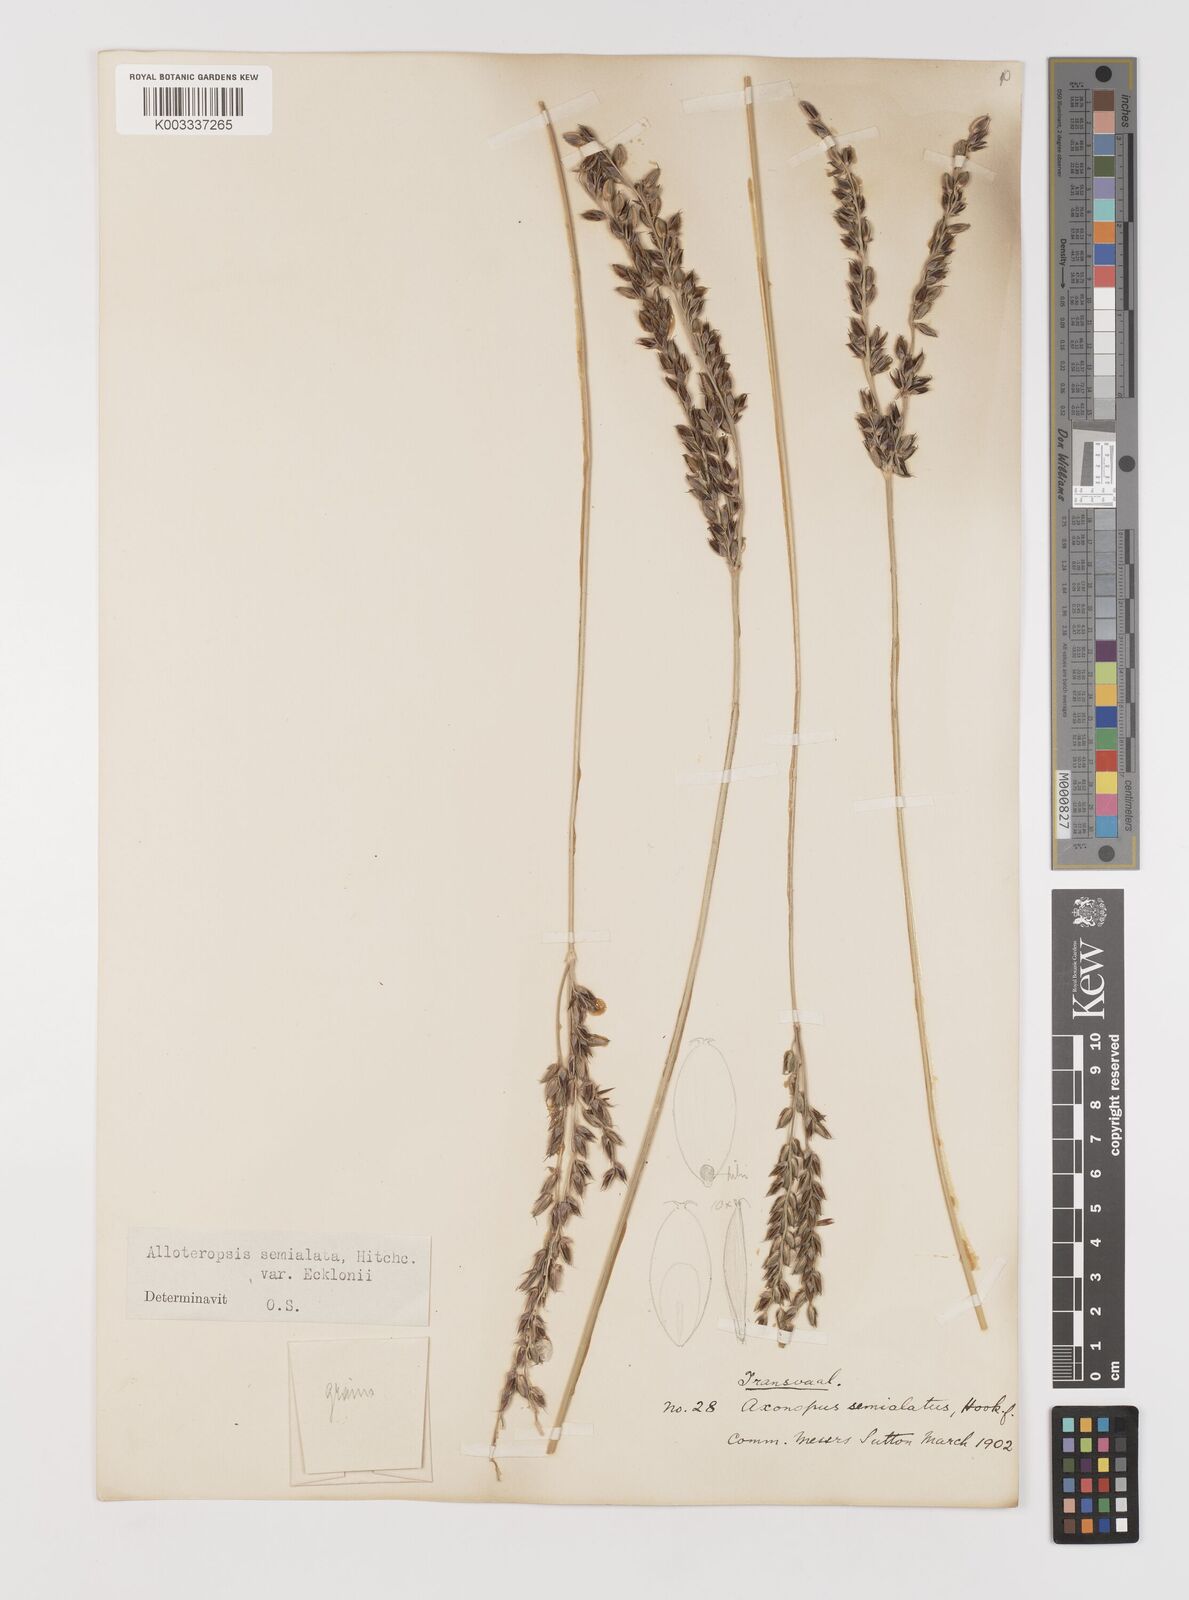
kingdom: Plantae
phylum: Tracheophyta
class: Liliopsida
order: Poales
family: Poaceae
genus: Alloteropsis
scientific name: Alloteropsis semialata
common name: Cockatoo grass
